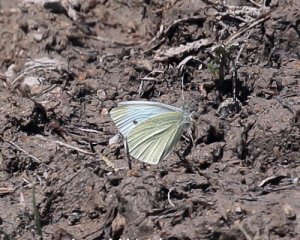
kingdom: Animalia
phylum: Arthropoda
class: Insecta
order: Lepidoptera
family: Pieridae
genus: Pieris
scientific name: Pieris rapae
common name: Cabbage White
